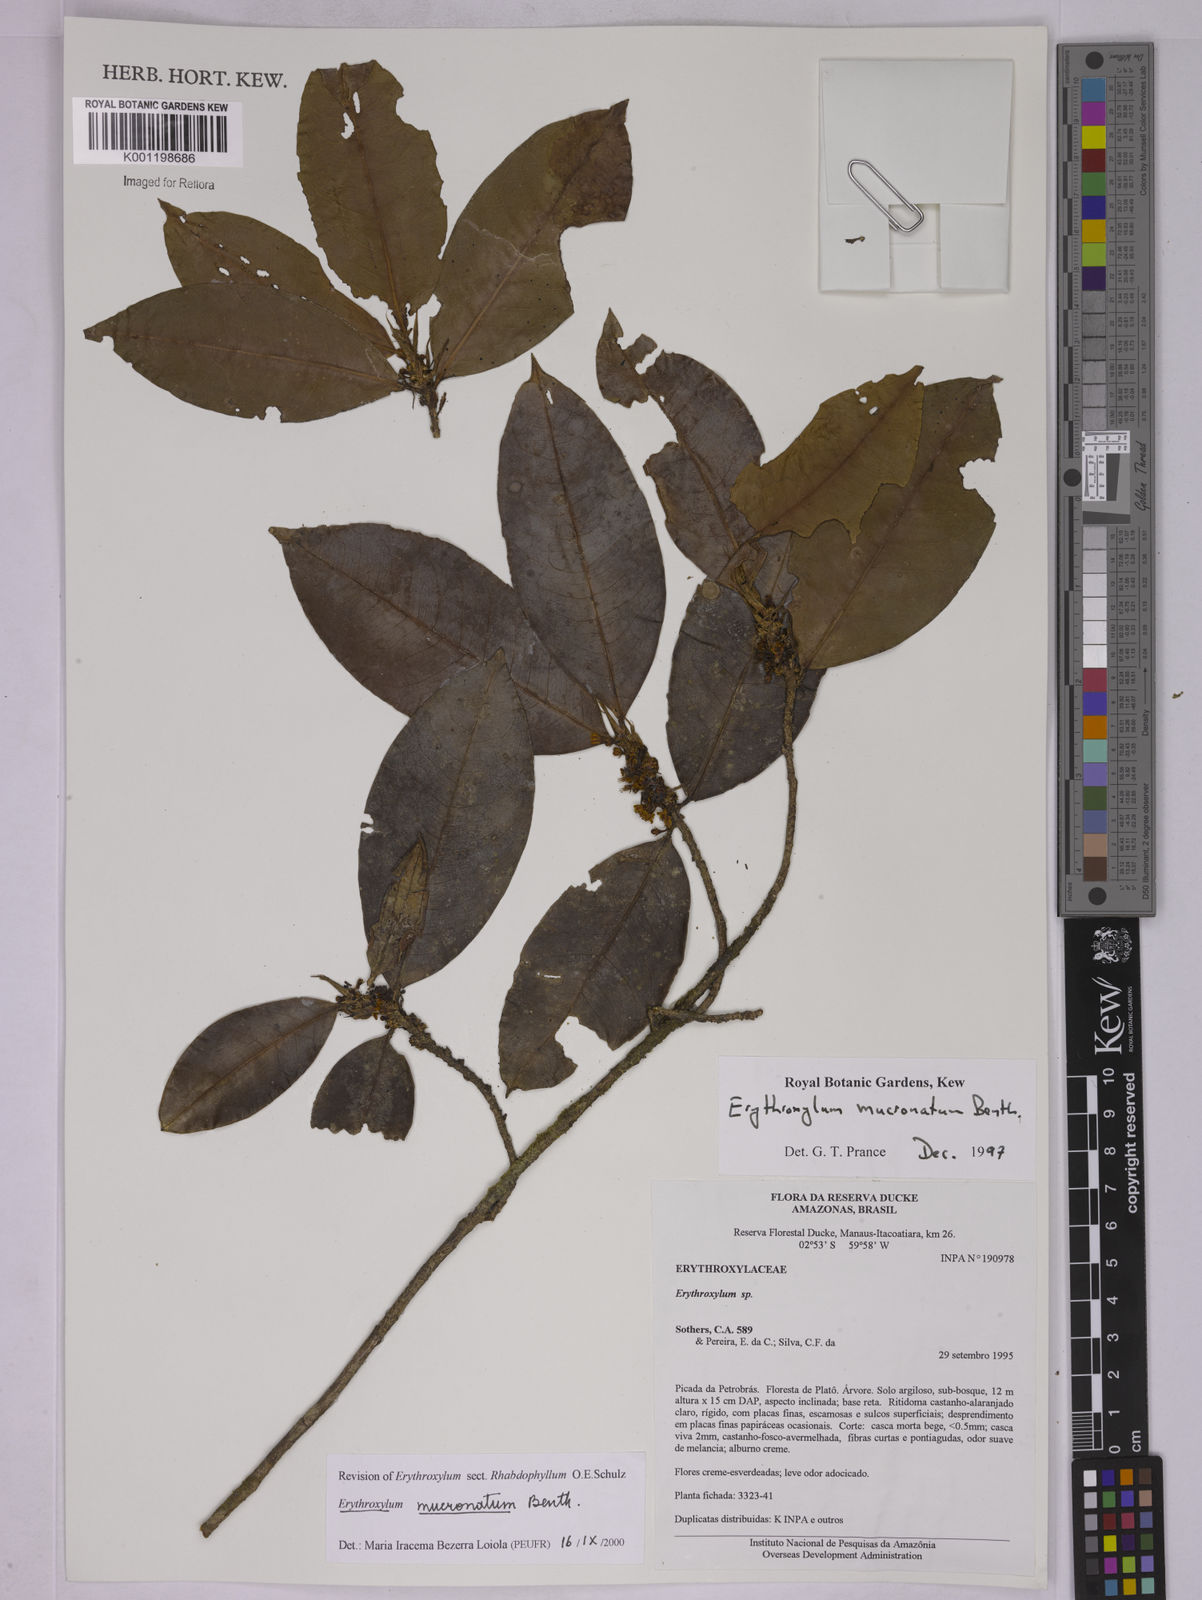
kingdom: Plantae
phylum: Tracheophyta
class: Magnoliopsida
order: Malpighiales
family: Erythroxylaceae
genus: Erythroxylum
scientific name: Erythroxylum mucronatum
